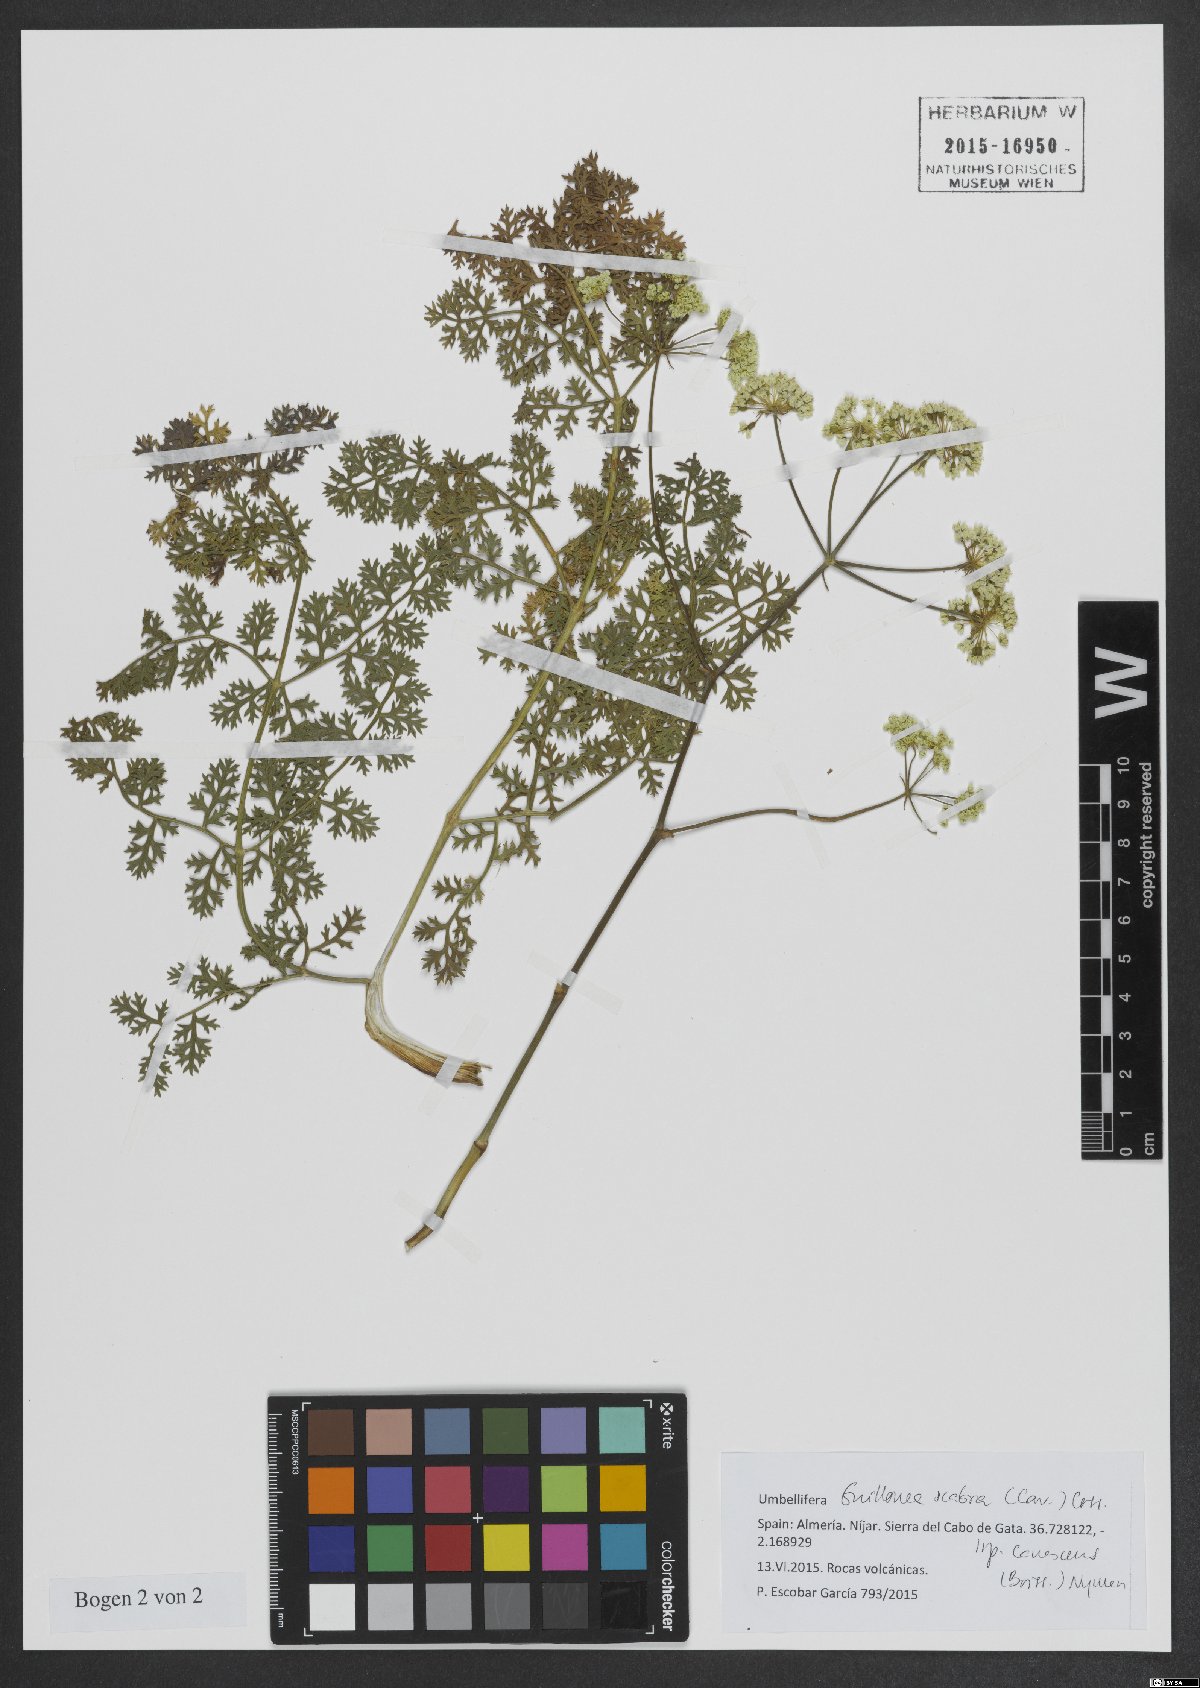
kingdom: Plantae
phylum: Tracheophyta
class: Magnoliopsida
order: Apiales
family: Apiaceae
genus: Thapsia
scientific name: Thapsia scabra
